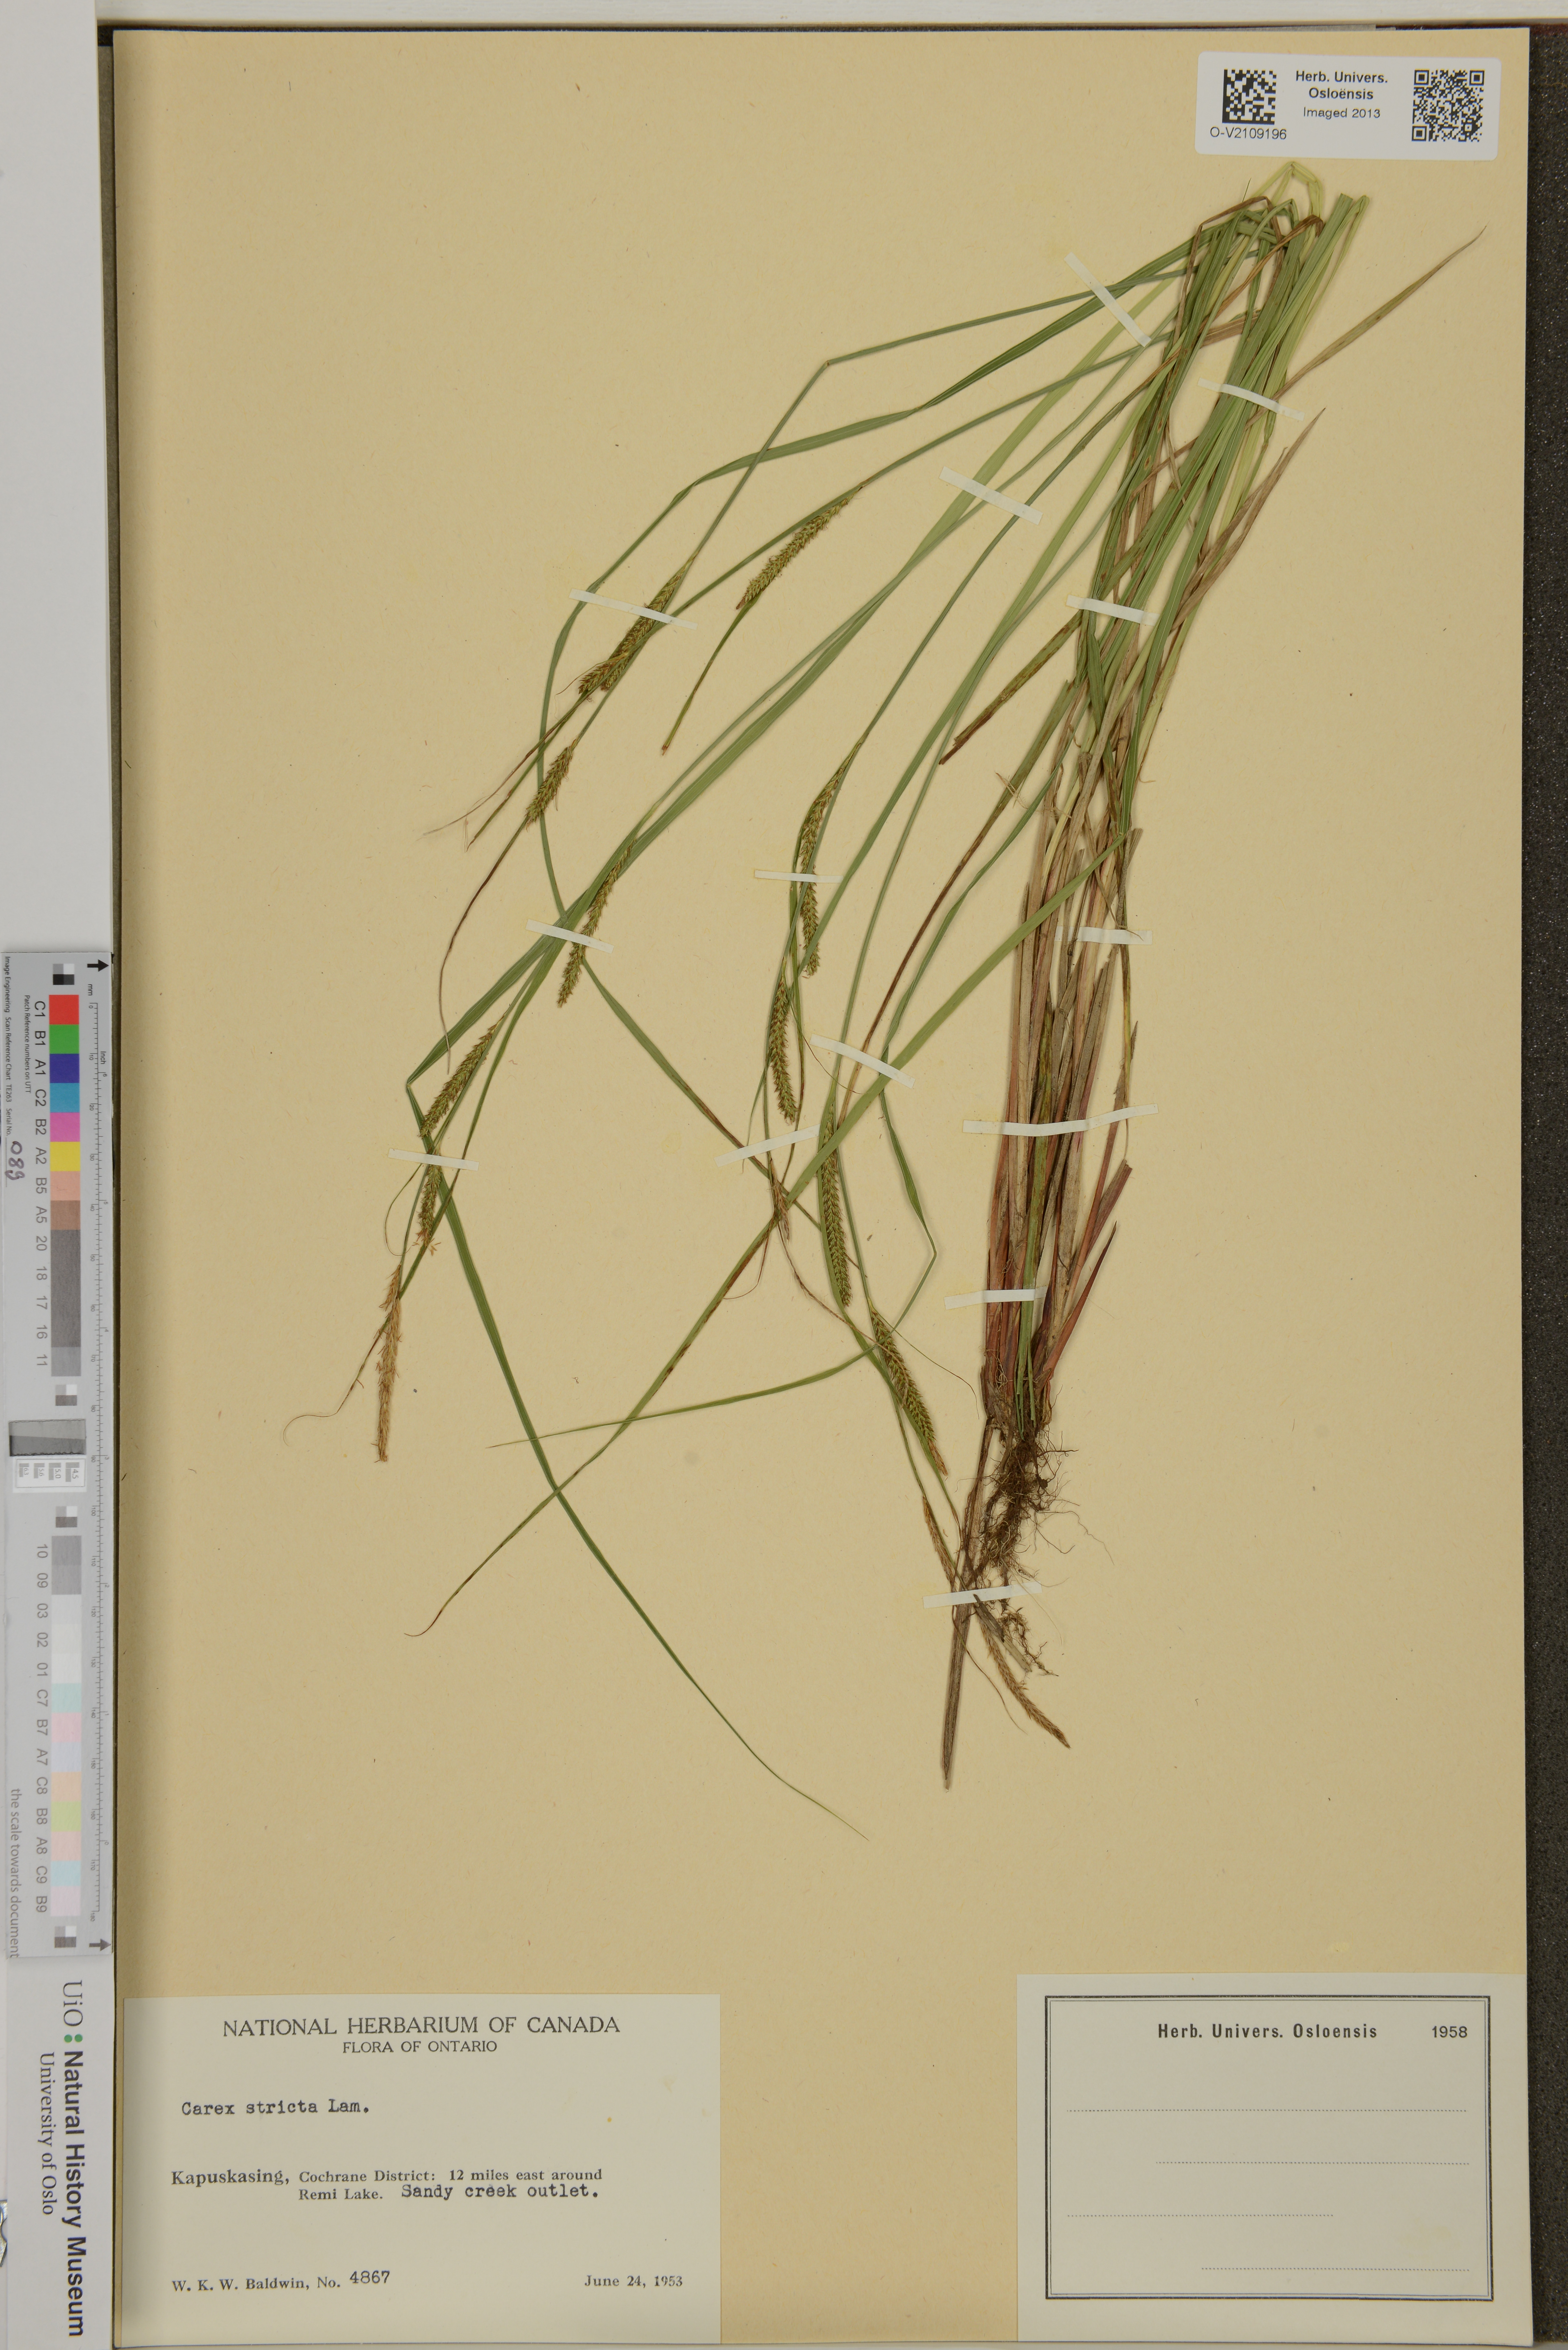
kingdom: Plantae
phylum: Tracheophyta
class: Liliopsida
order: Poales
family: Cyperaceae
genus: Carex
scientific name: Carex elata
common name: Tufted sedge
